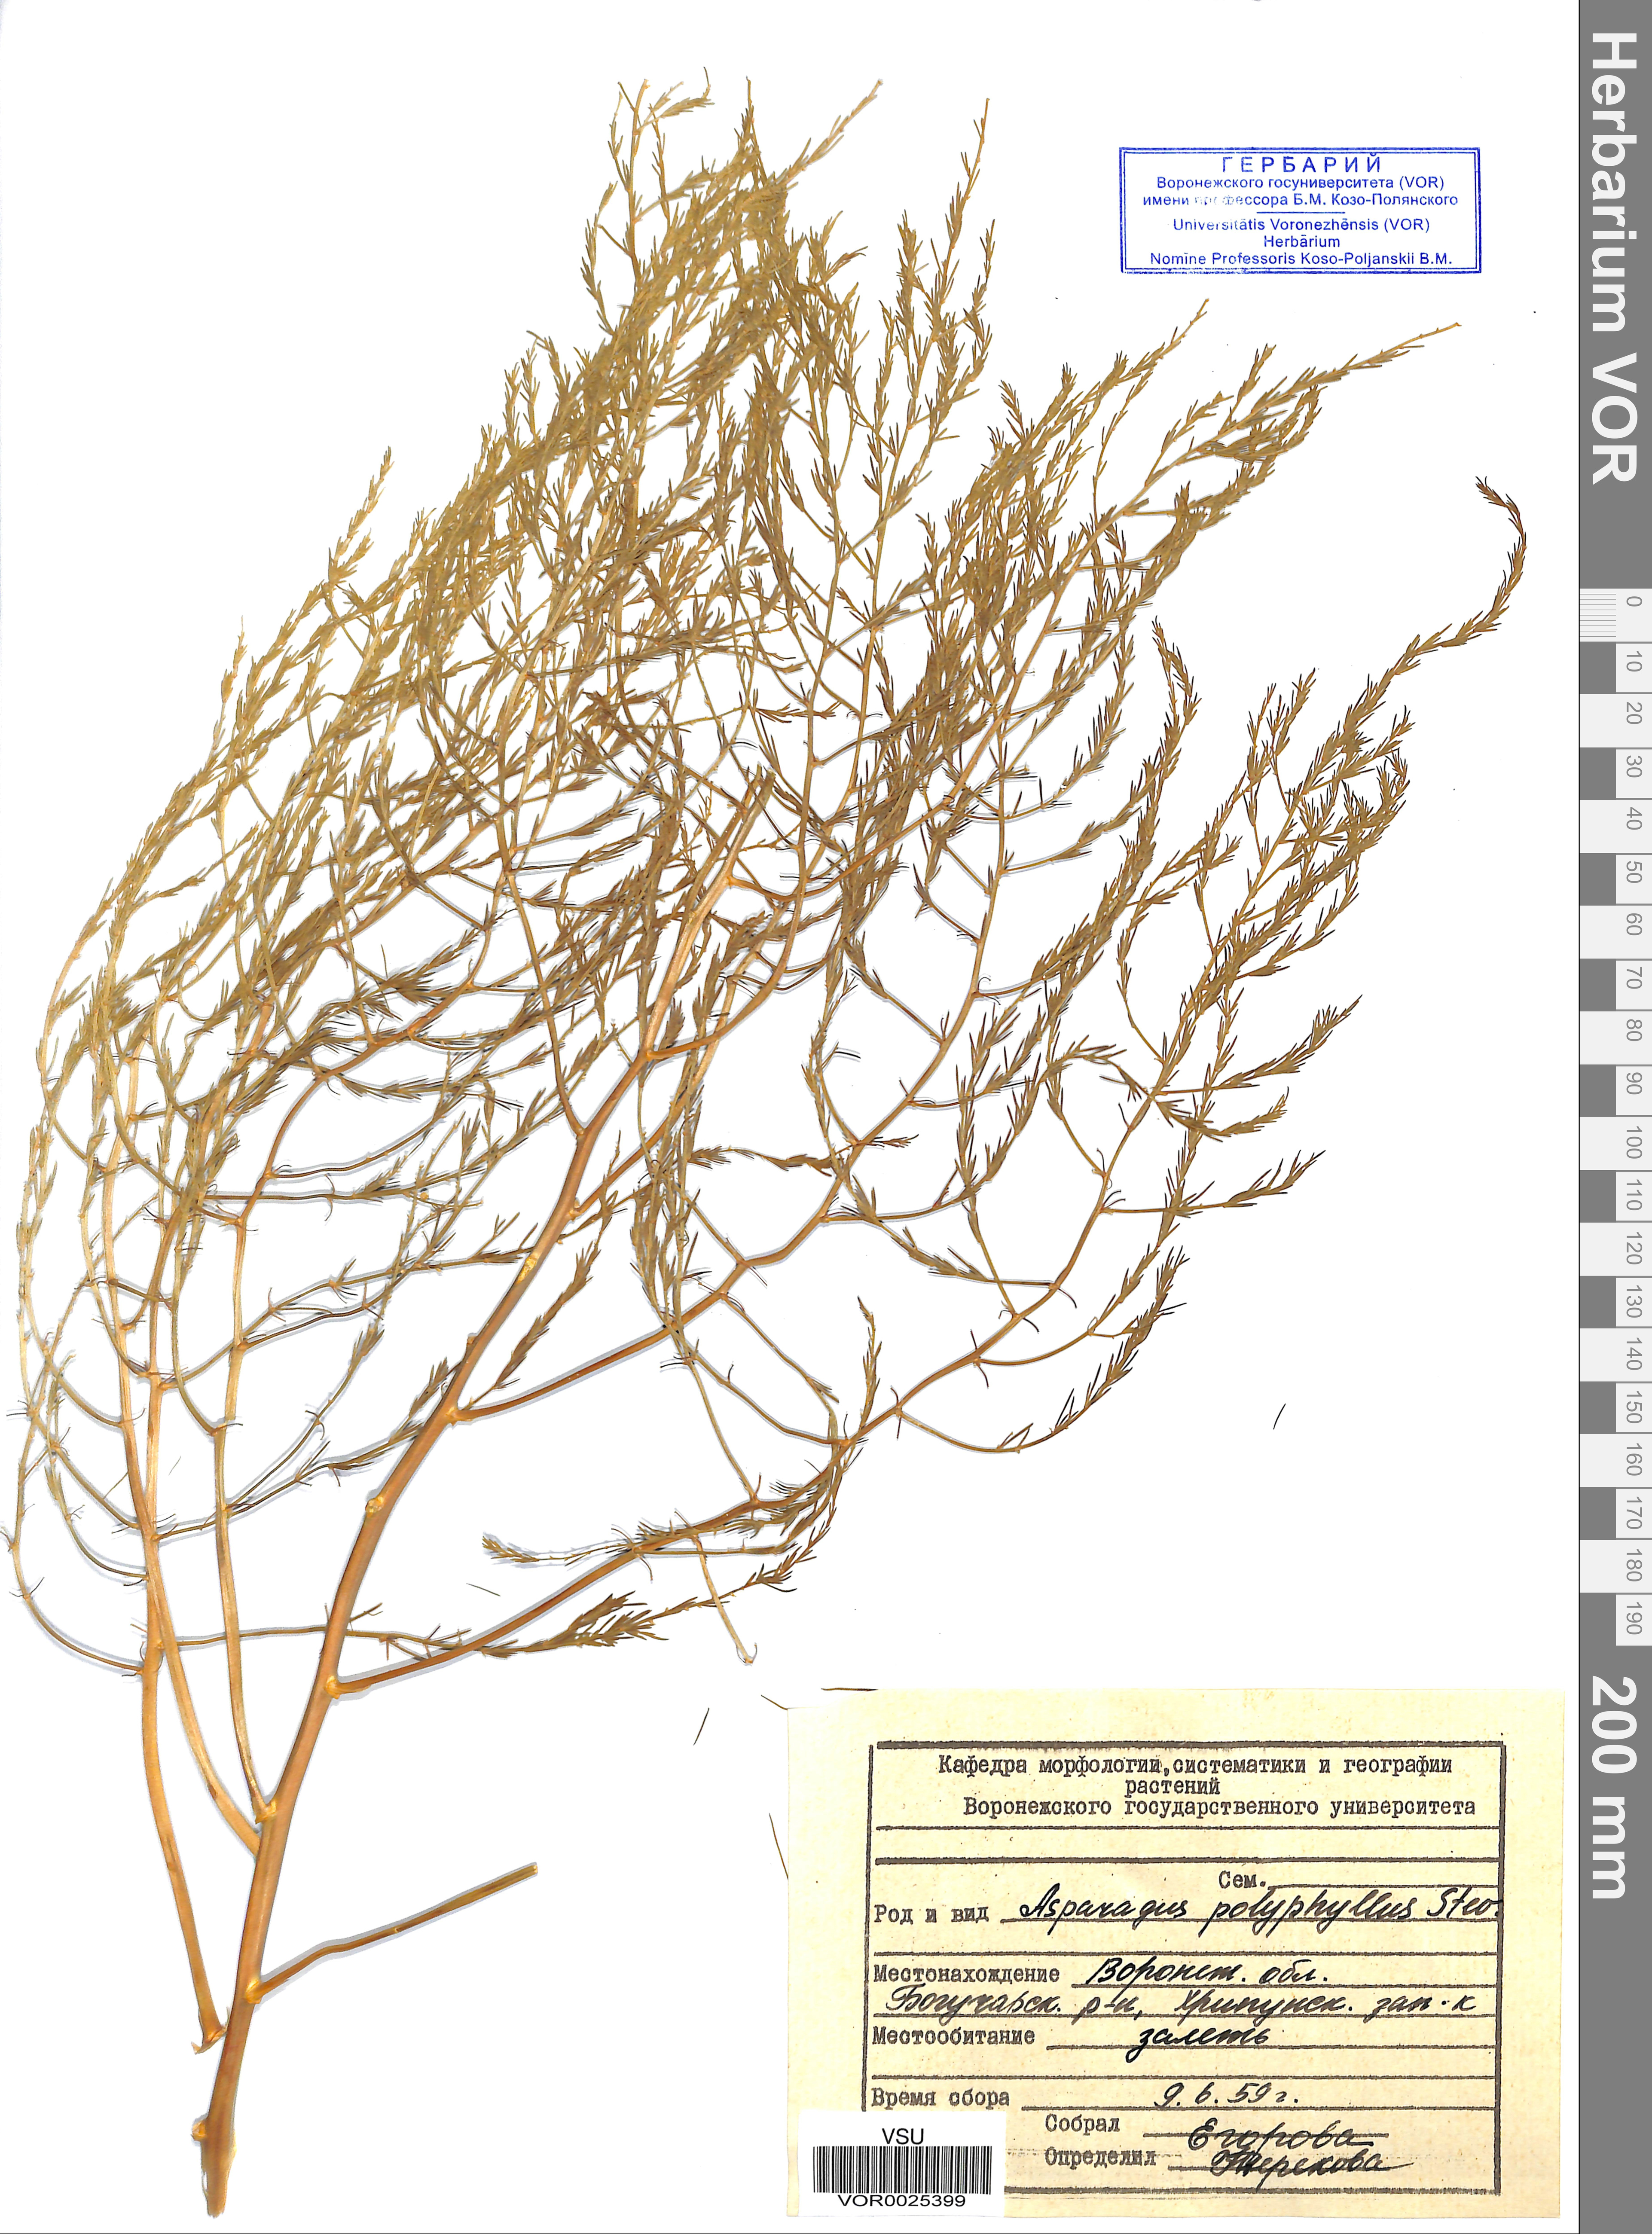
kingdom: Plantae
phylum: Tracheophyta
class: Liliopsida
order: Asparagales
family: Asparagaceae
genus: Asparagus
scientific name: Asparagus officinalis
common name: Garden asparagus
